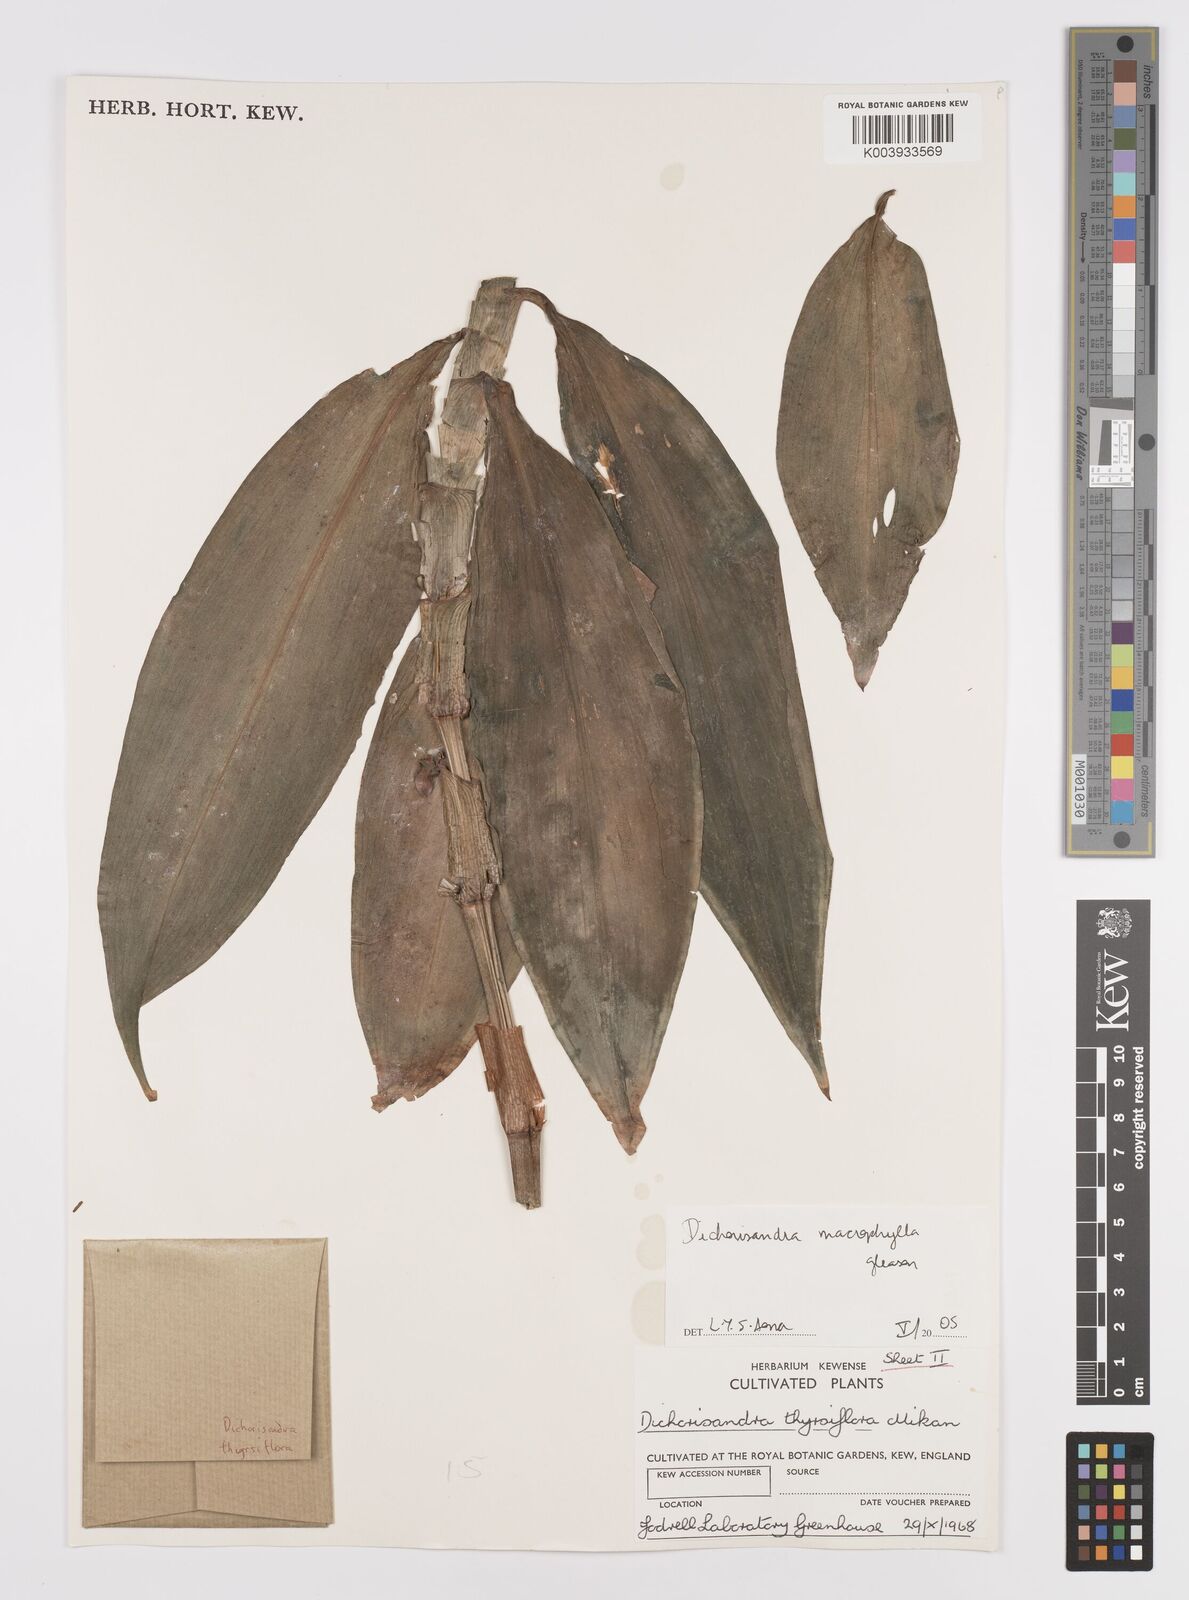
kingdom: Plantae
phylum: Tracheophyta
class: Liliopsida
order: Commelinales
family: Commelinaceae
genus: Dichorisandra
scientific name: Dichorisandra albomarginata
